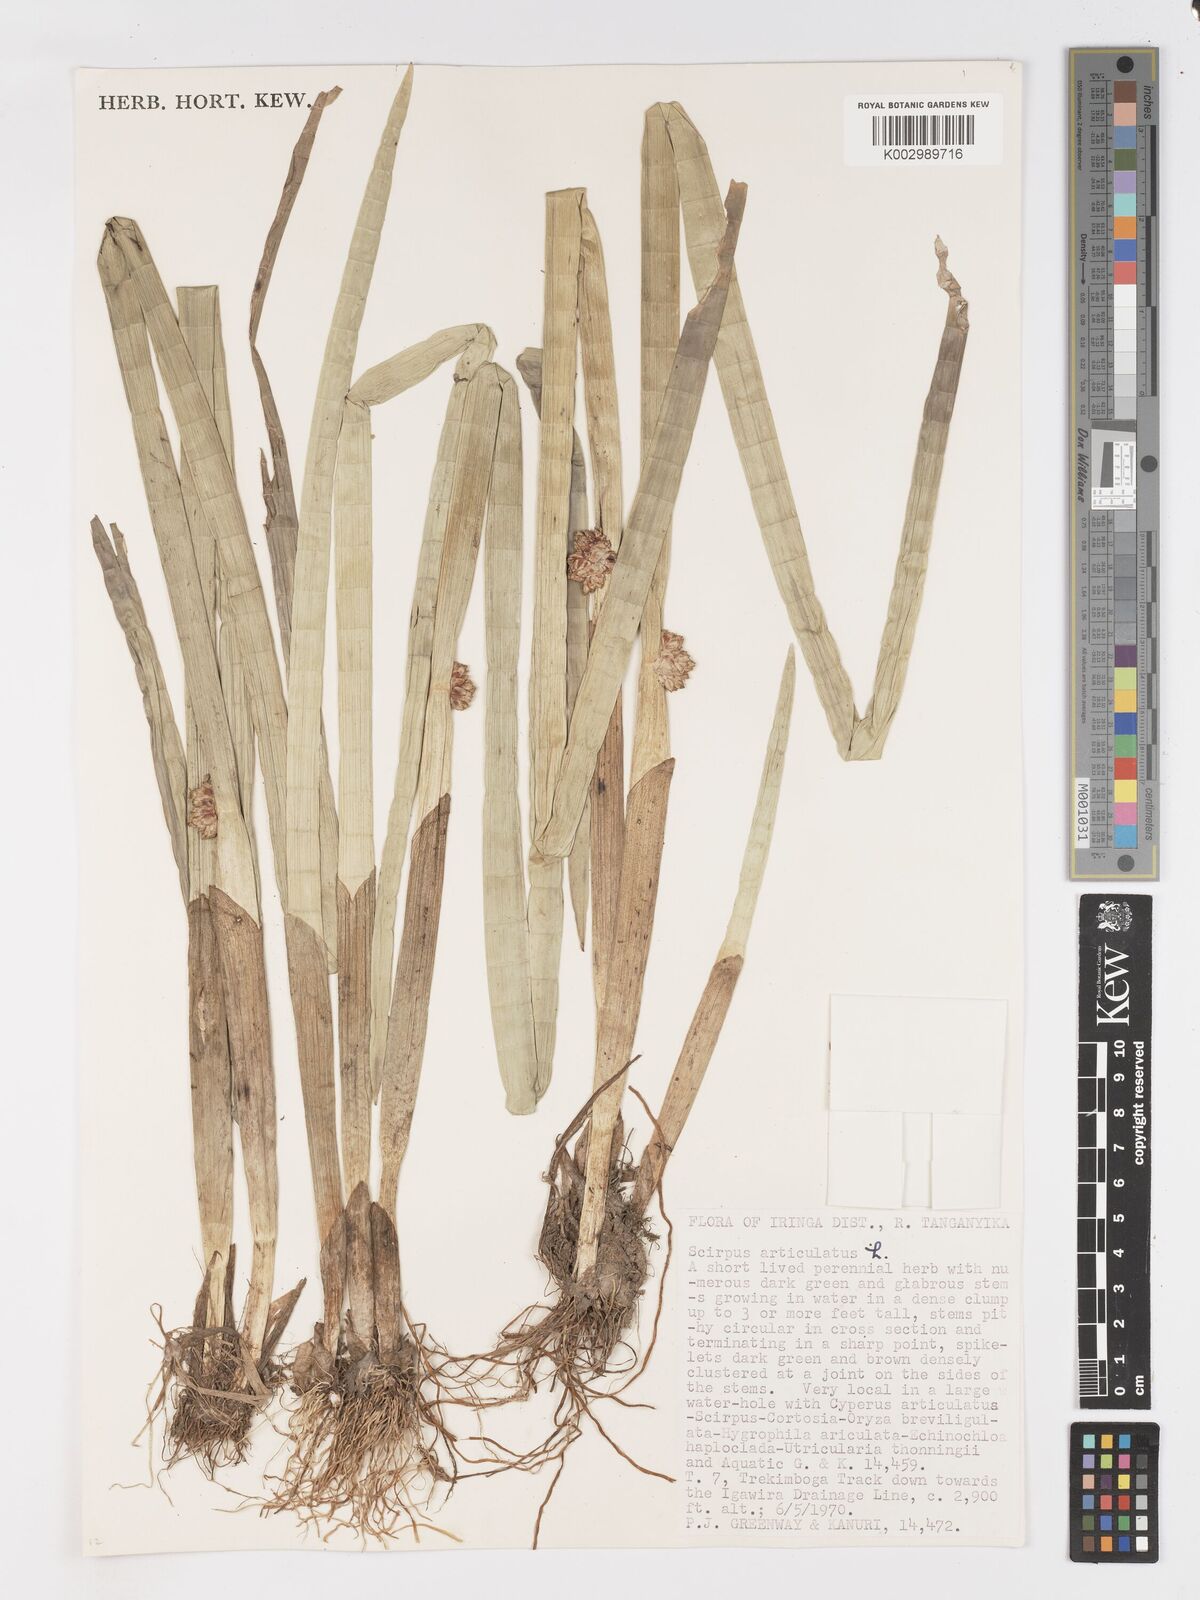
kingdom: Plantae
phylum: Tracheophyta
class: Liliopsida
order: Poales
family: Cyperaceae
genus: Schoenoplectiella
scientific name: Schoenoplectiella articulata
